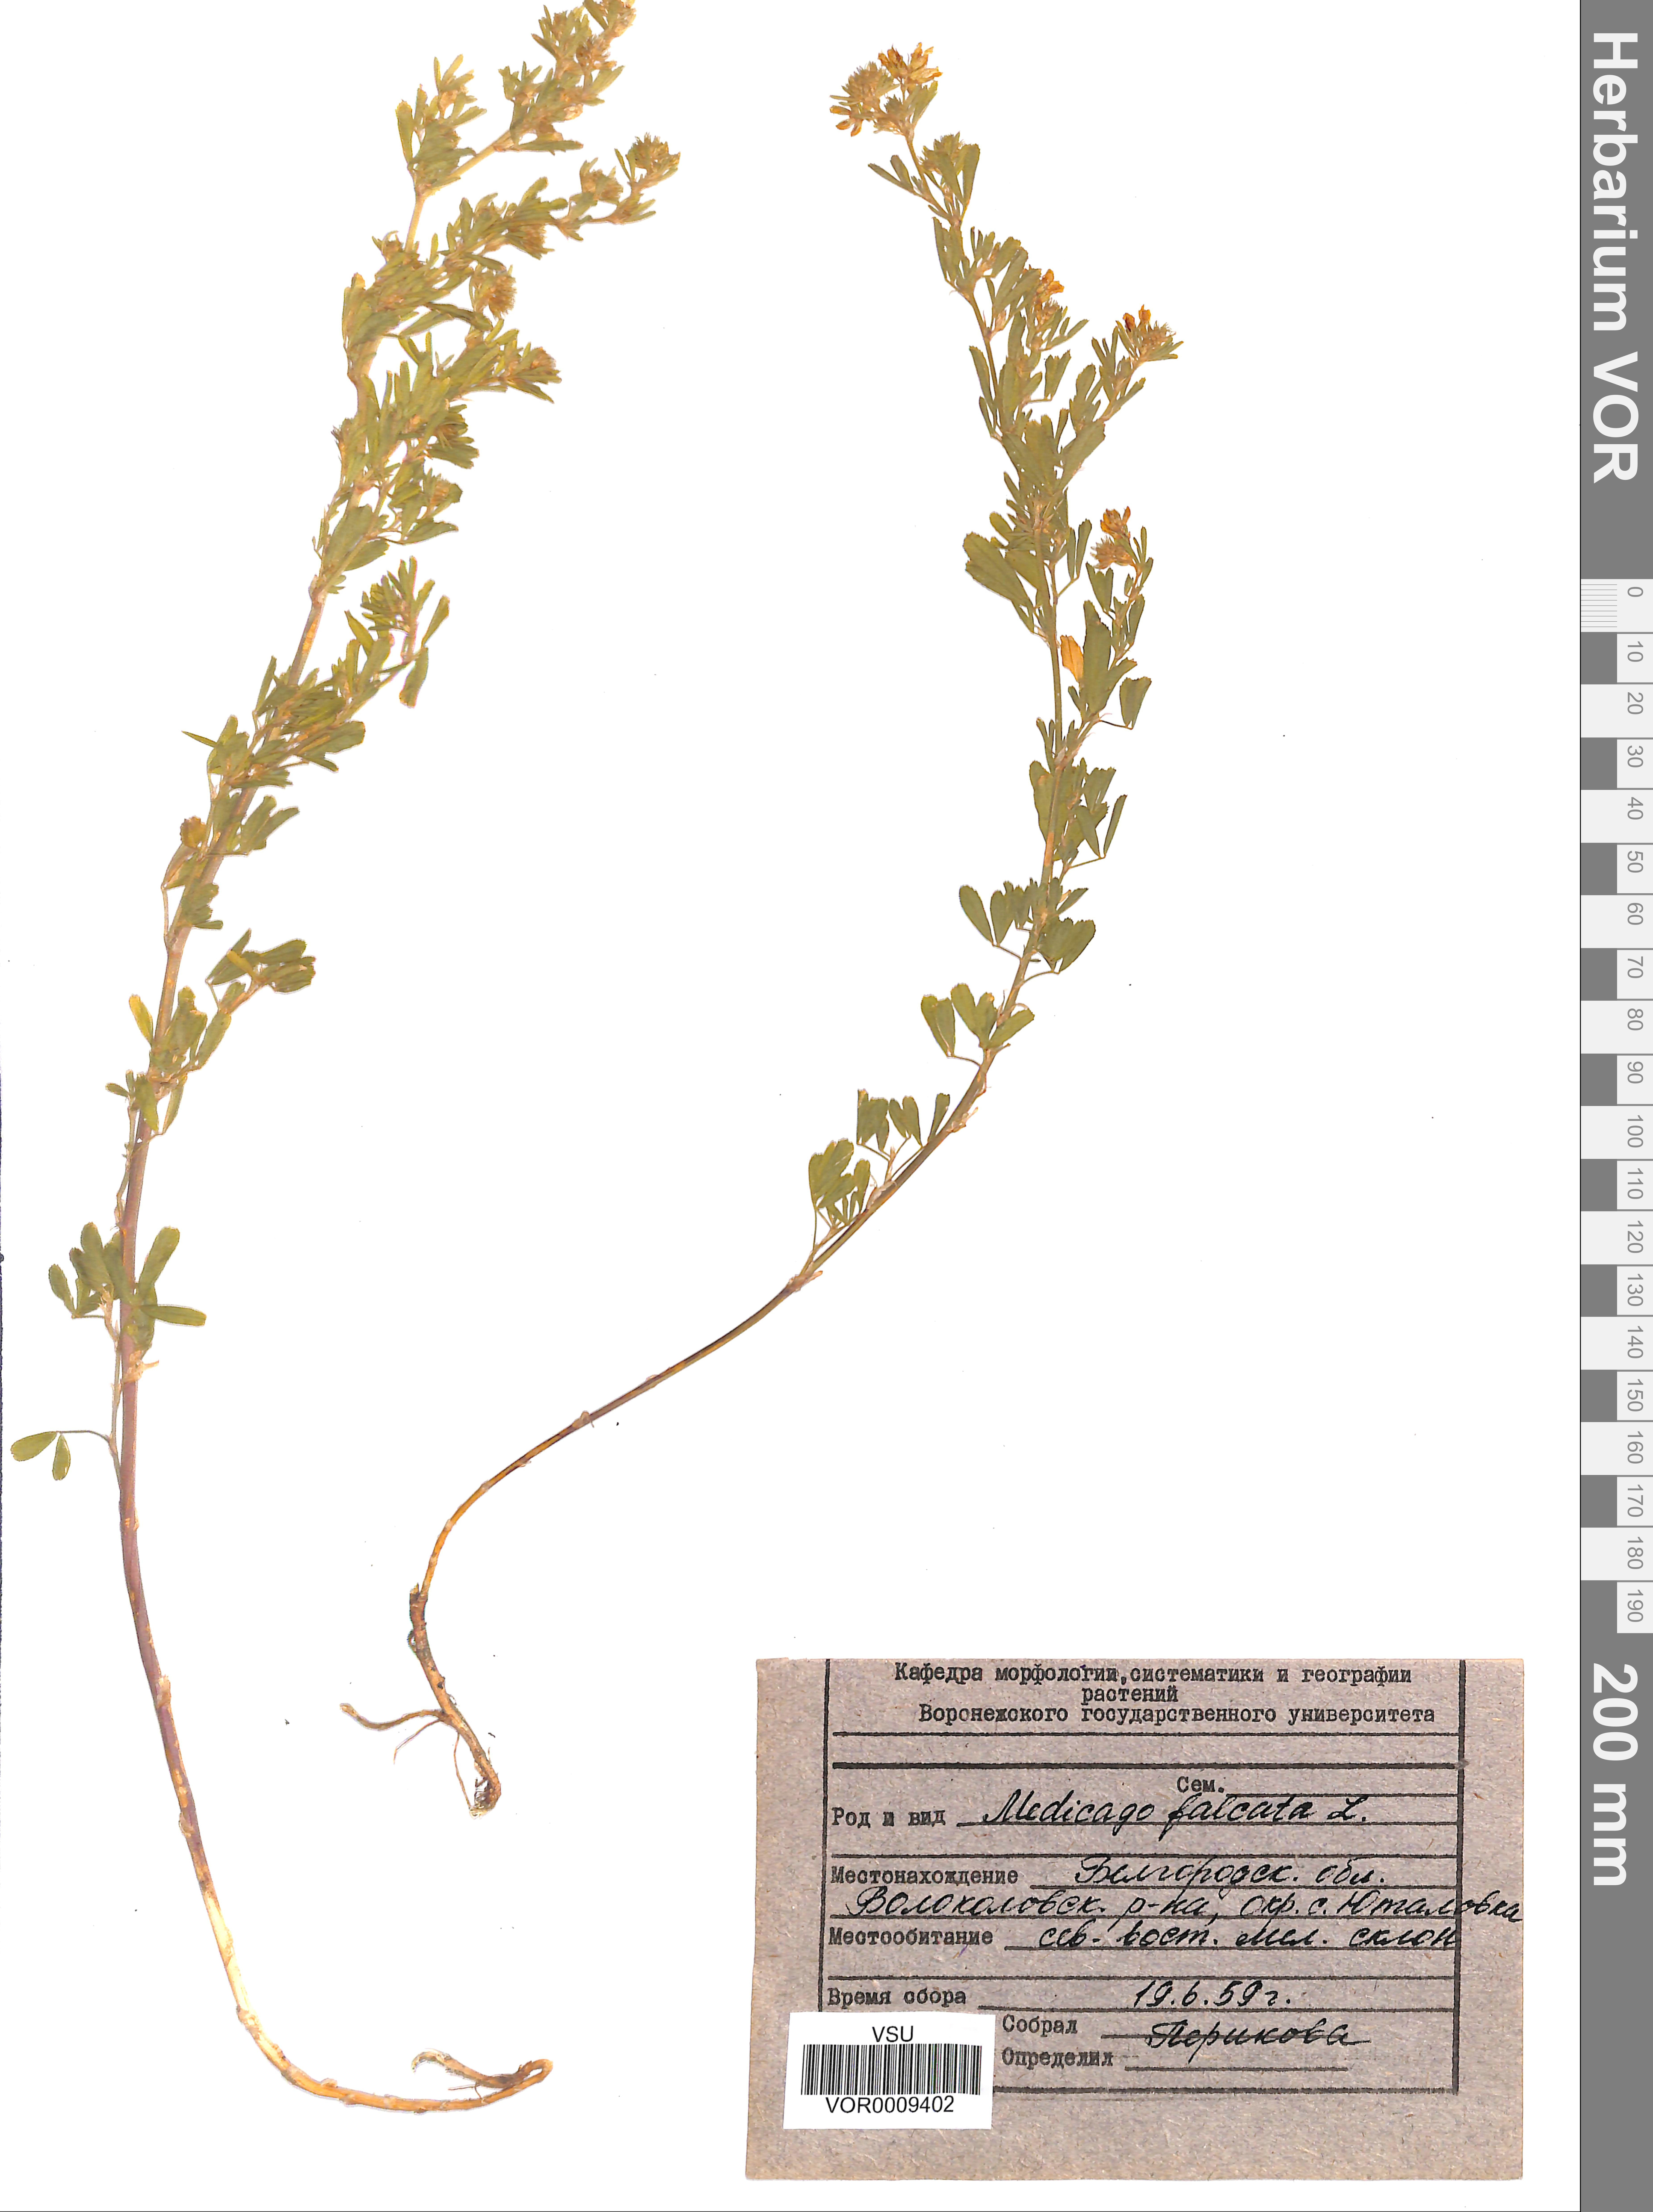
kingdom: Plantae
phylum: Tracheophyta
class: Magnoliopsida
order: Fabales
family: Fabaceae
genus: Medicago
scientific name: Medicago falcata
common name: Sickle medick
